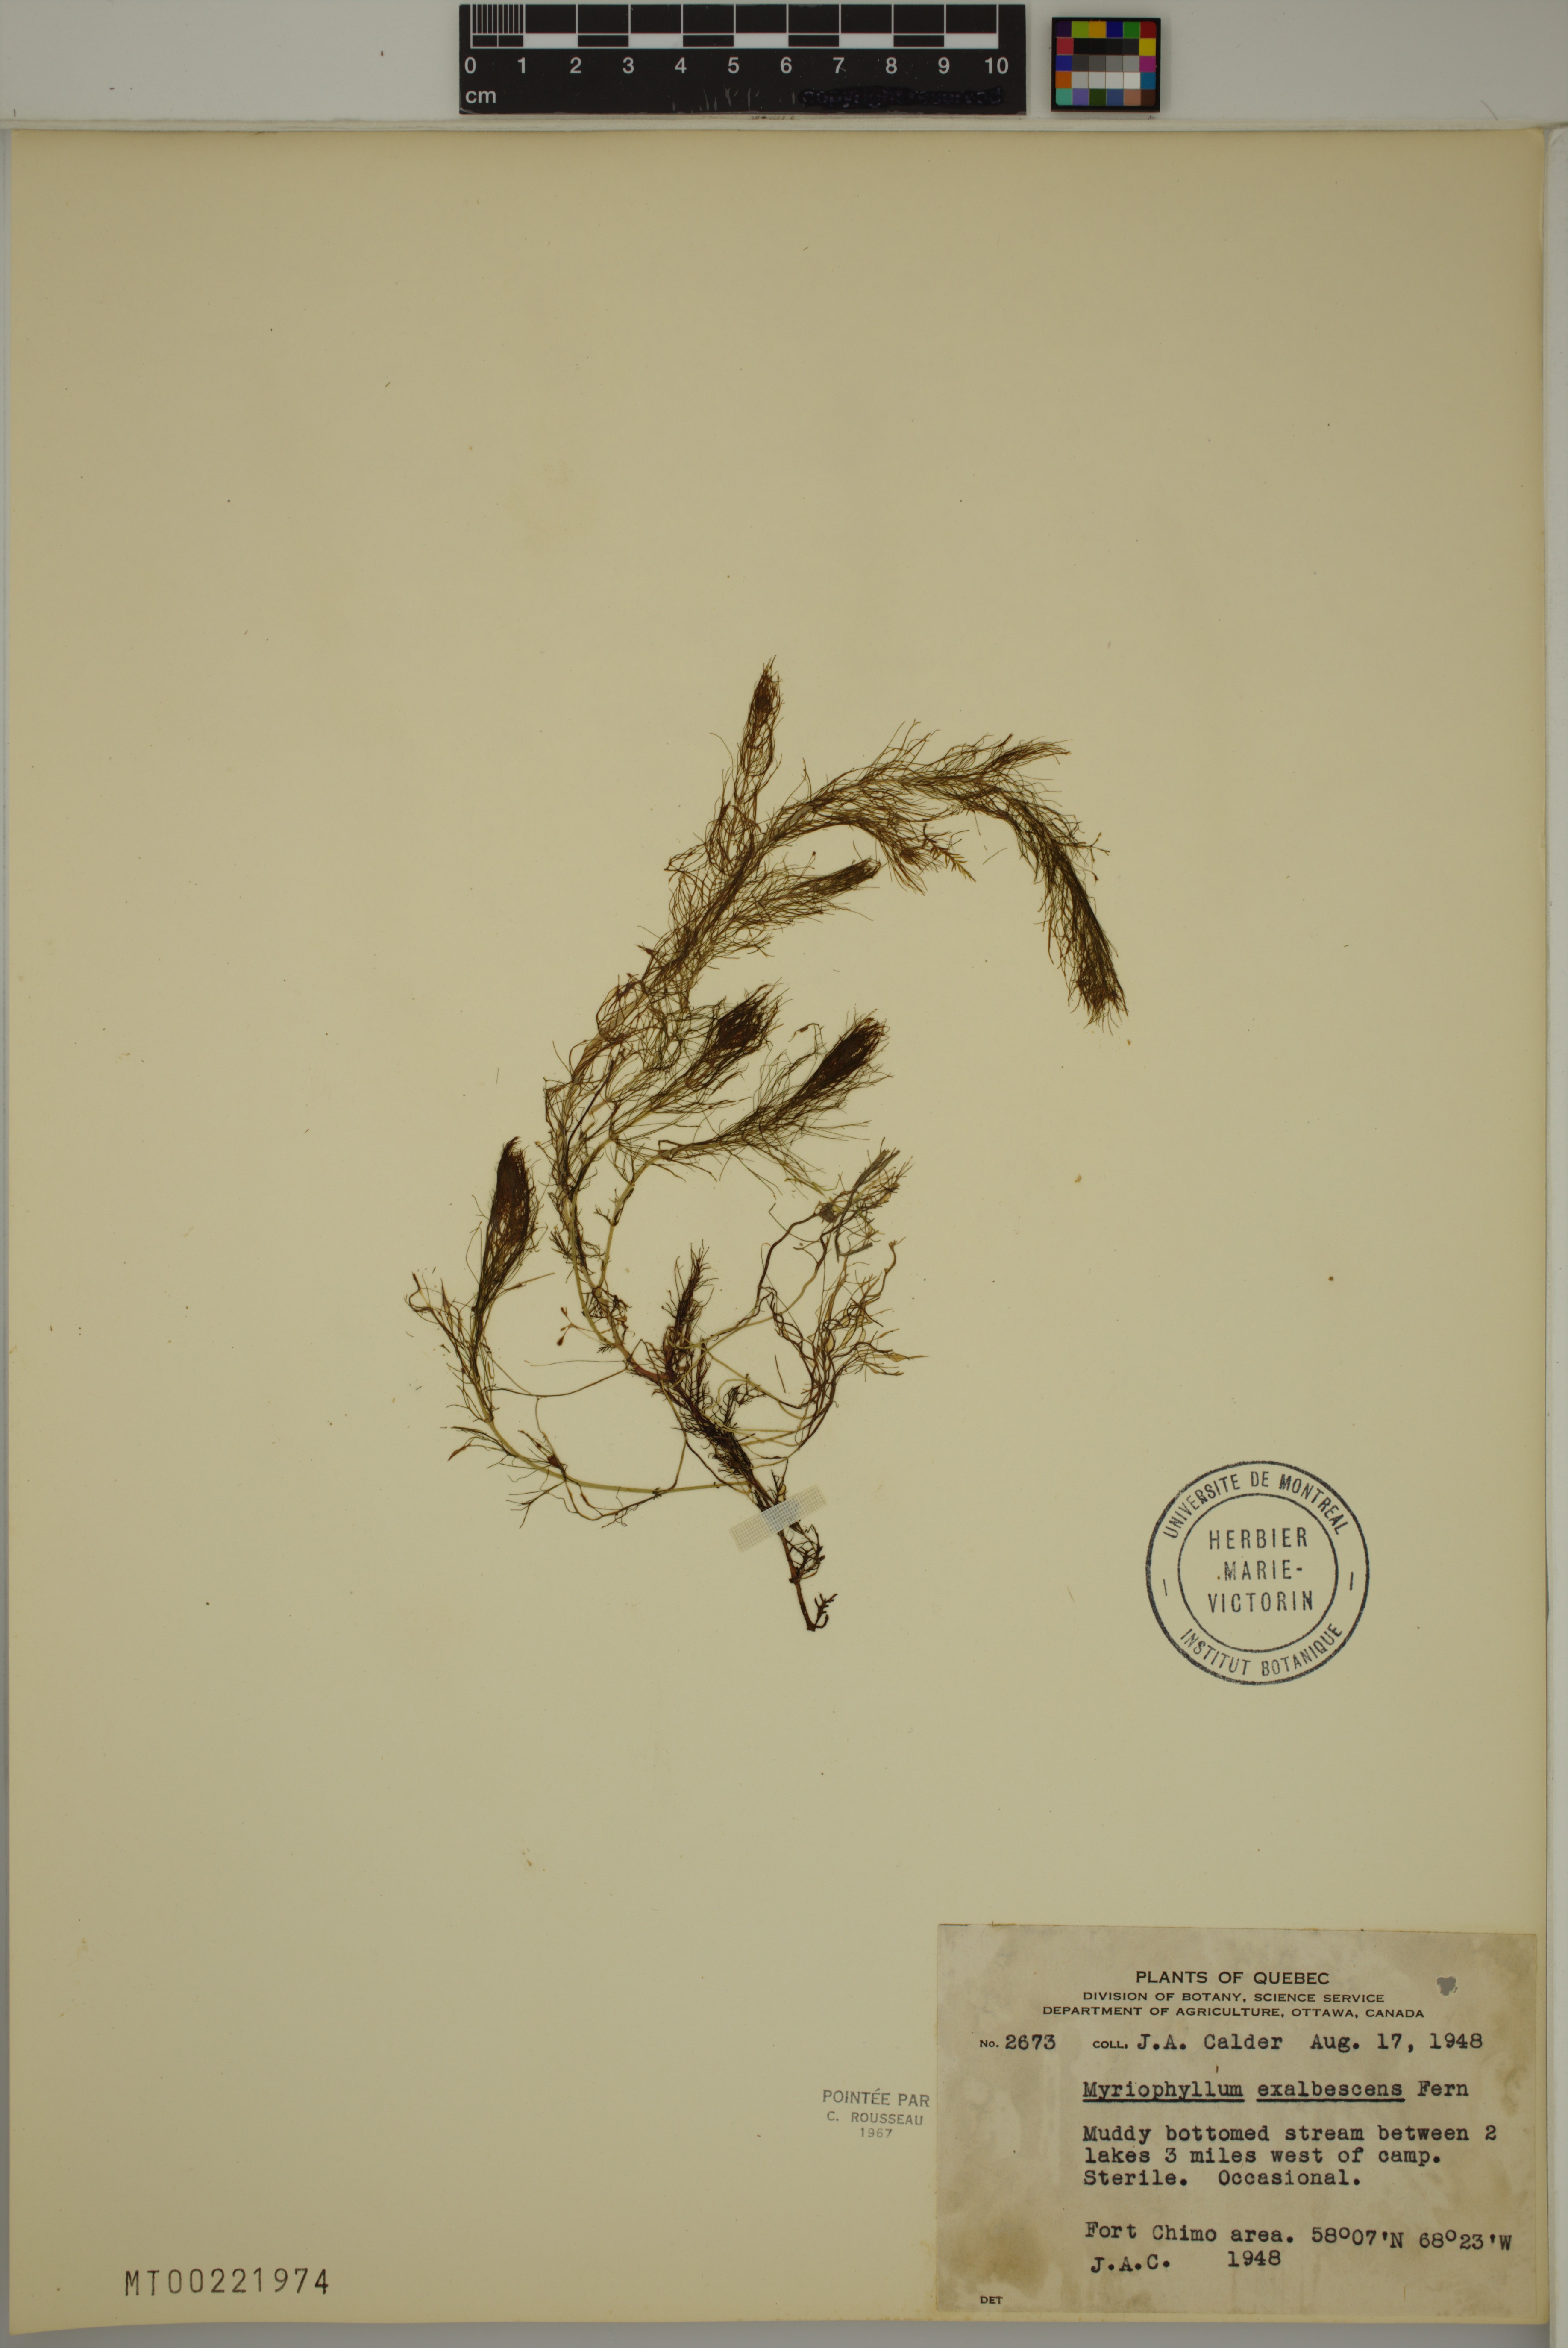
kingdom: Plantae
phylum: Tracheophyta
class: Magnoliopsida
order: Saxifragales
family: Haloragaceae
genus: Myriophyllum
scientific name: Myriophyllum sibiricum
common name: Siberian water-milfoil
